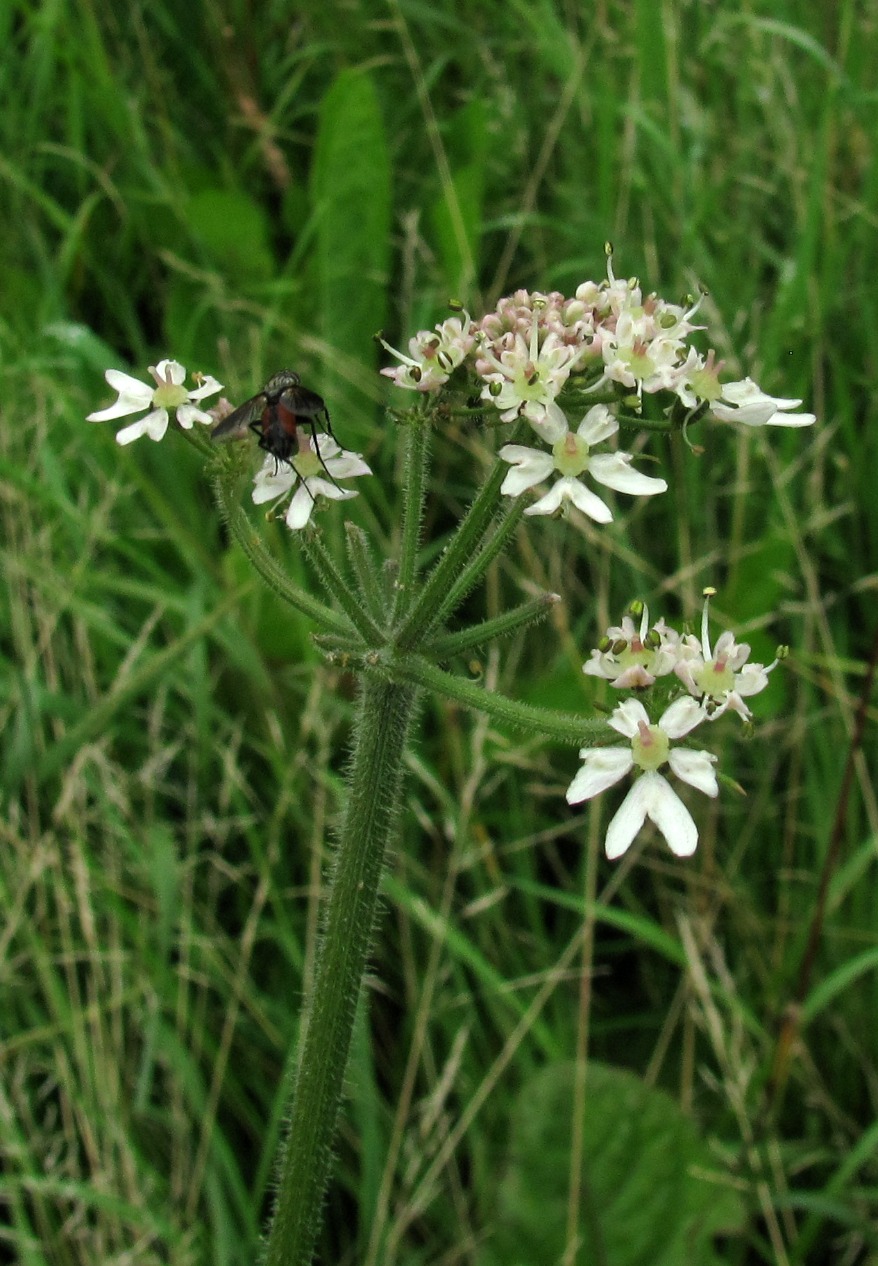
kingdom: Plantae
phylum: Tracheophyta
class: Magnoliopsida
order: Apiales
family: Apiaceae
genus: Heracleum
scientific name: Heracleum sphondylium
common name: Almindelig bjørneklo
